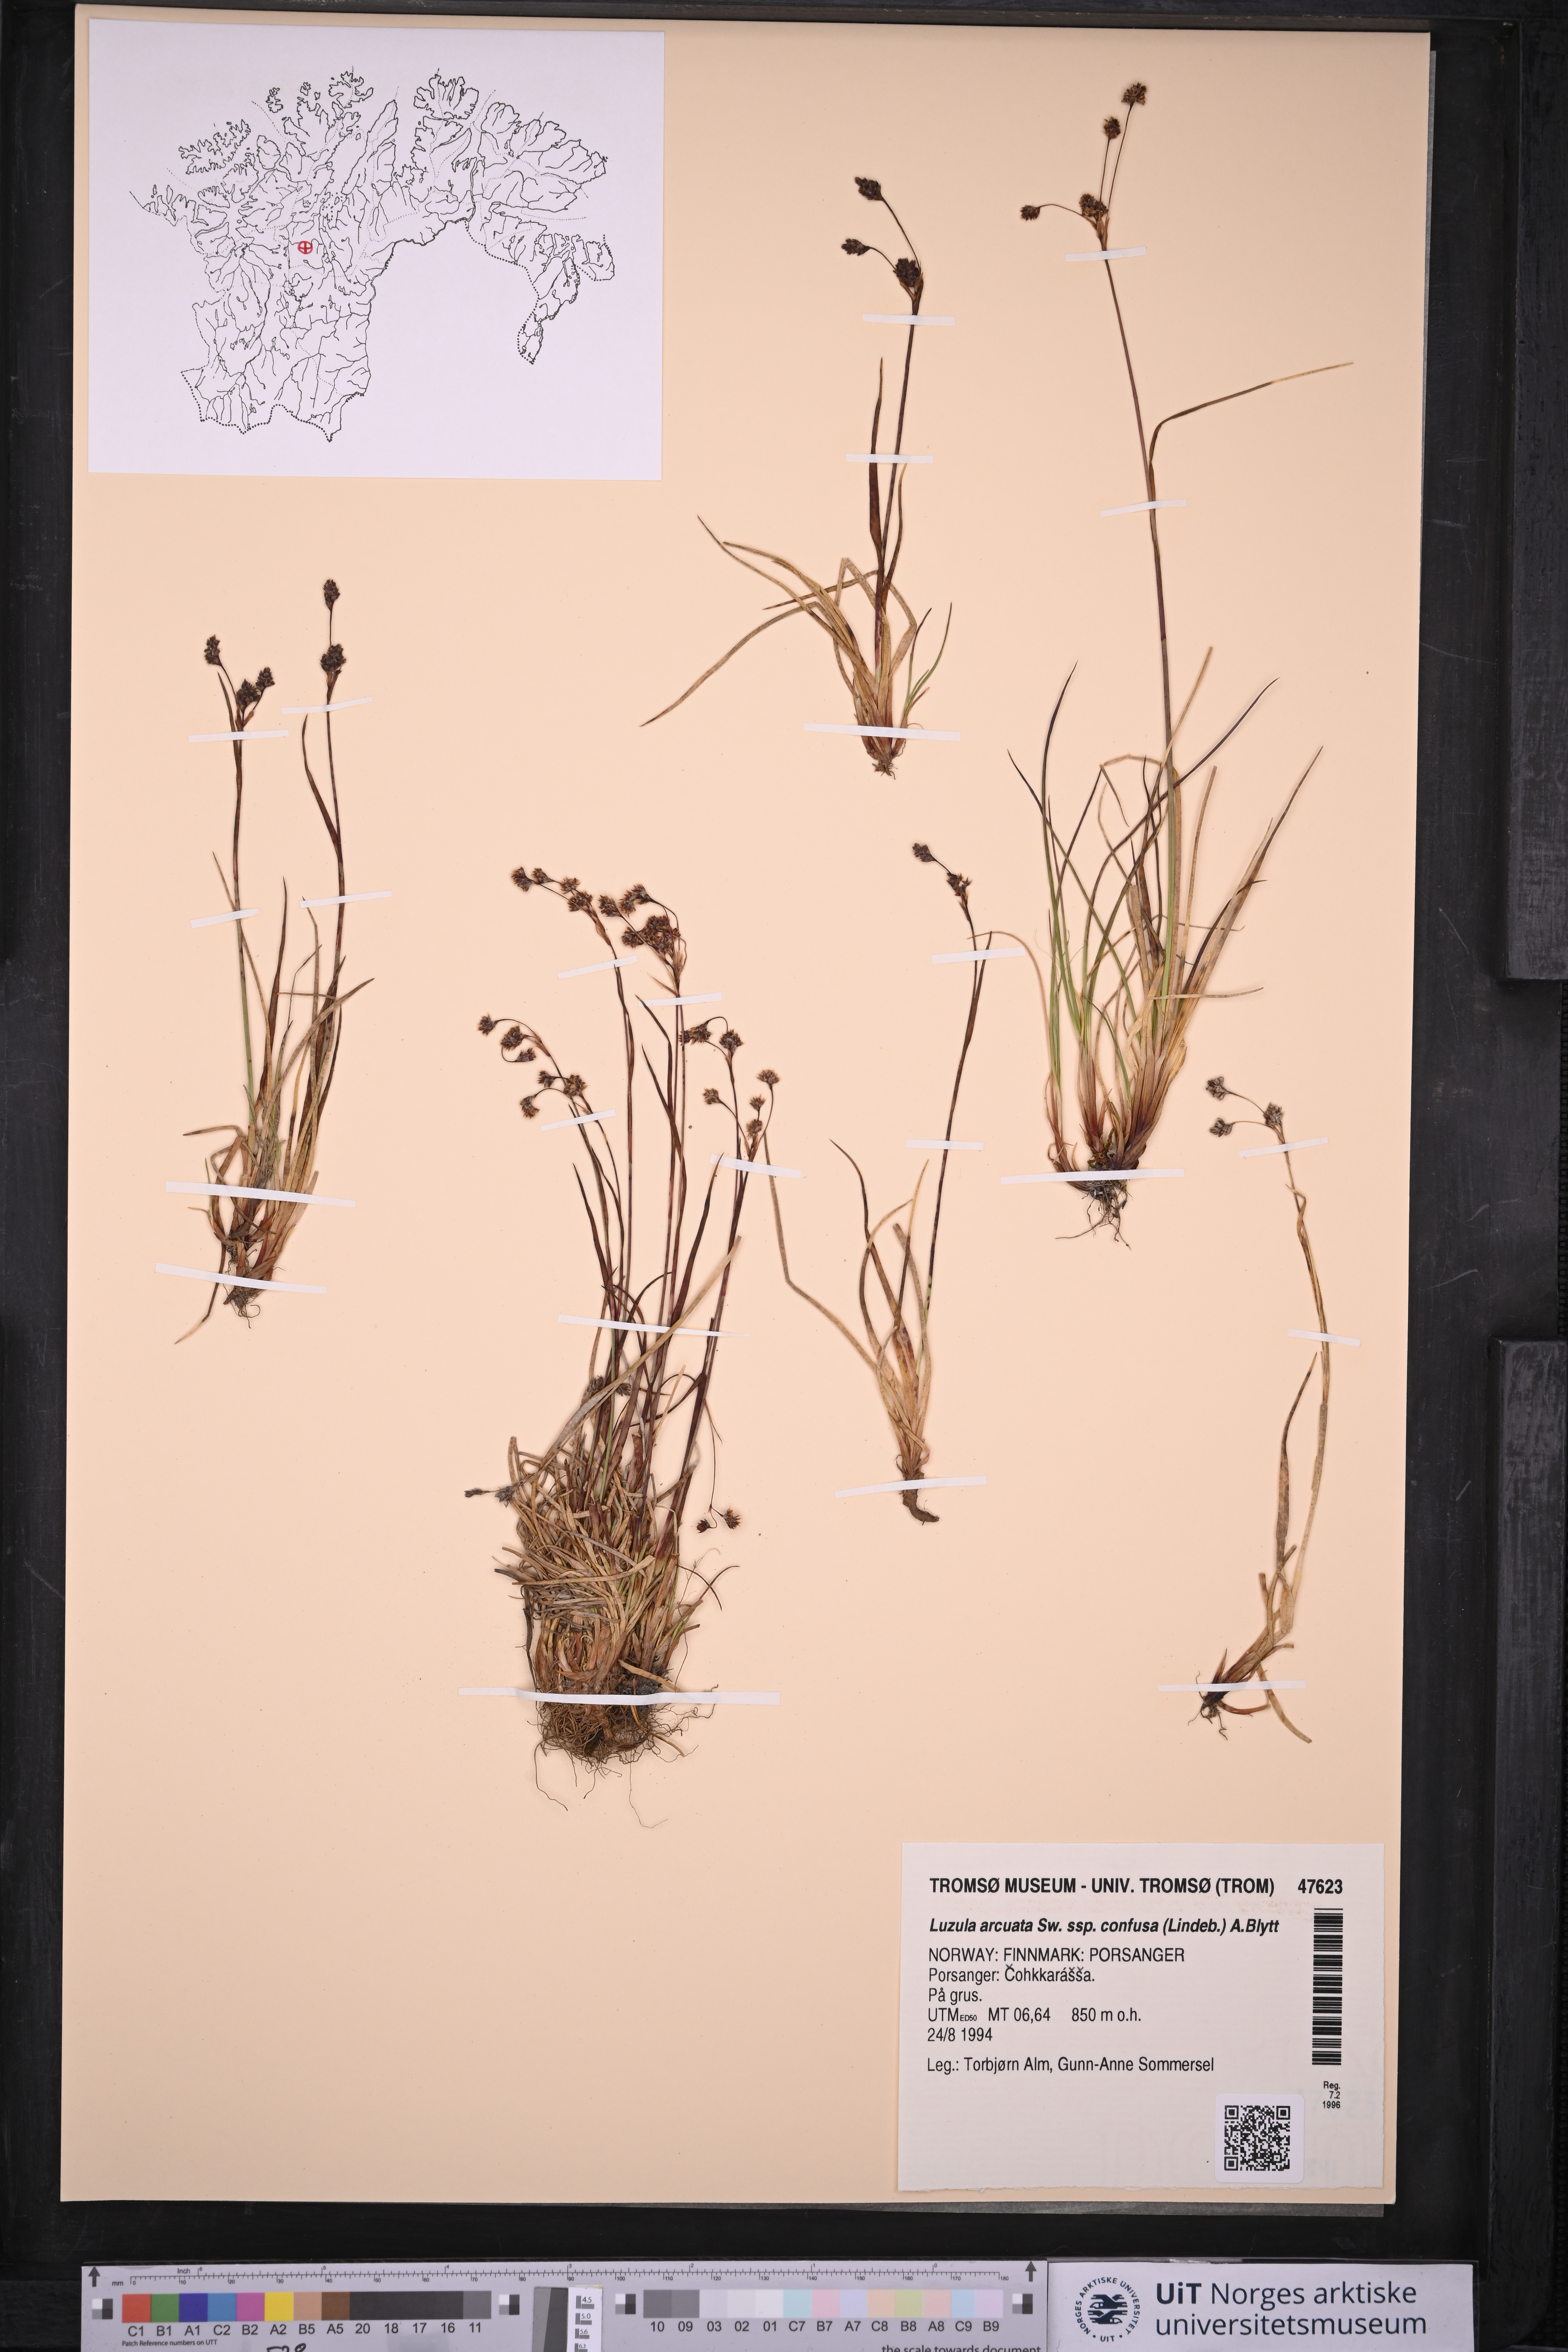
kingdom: Plantae
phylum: Tracheophyta
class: Liliopsida
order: Poales
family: Juncaceae
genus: Luzula
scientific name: Luzula confusa
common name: Northern wood rush
